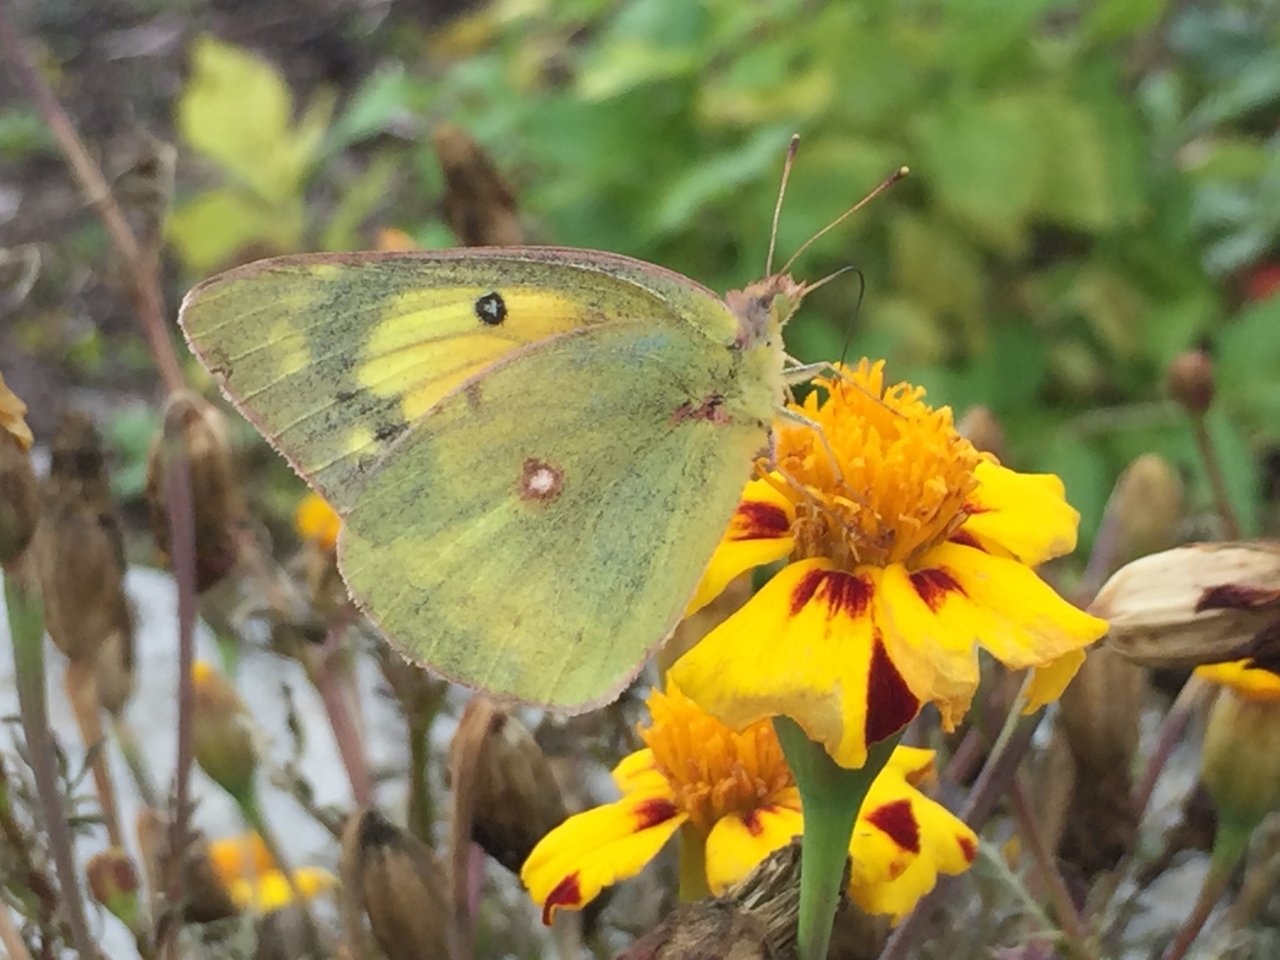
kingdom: Animalia
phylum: Arthropoda
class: Insecta
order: Lepidoptera
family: Pieridae
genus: Colias
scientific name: Colias eurytheme
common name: Orange Sulphur
